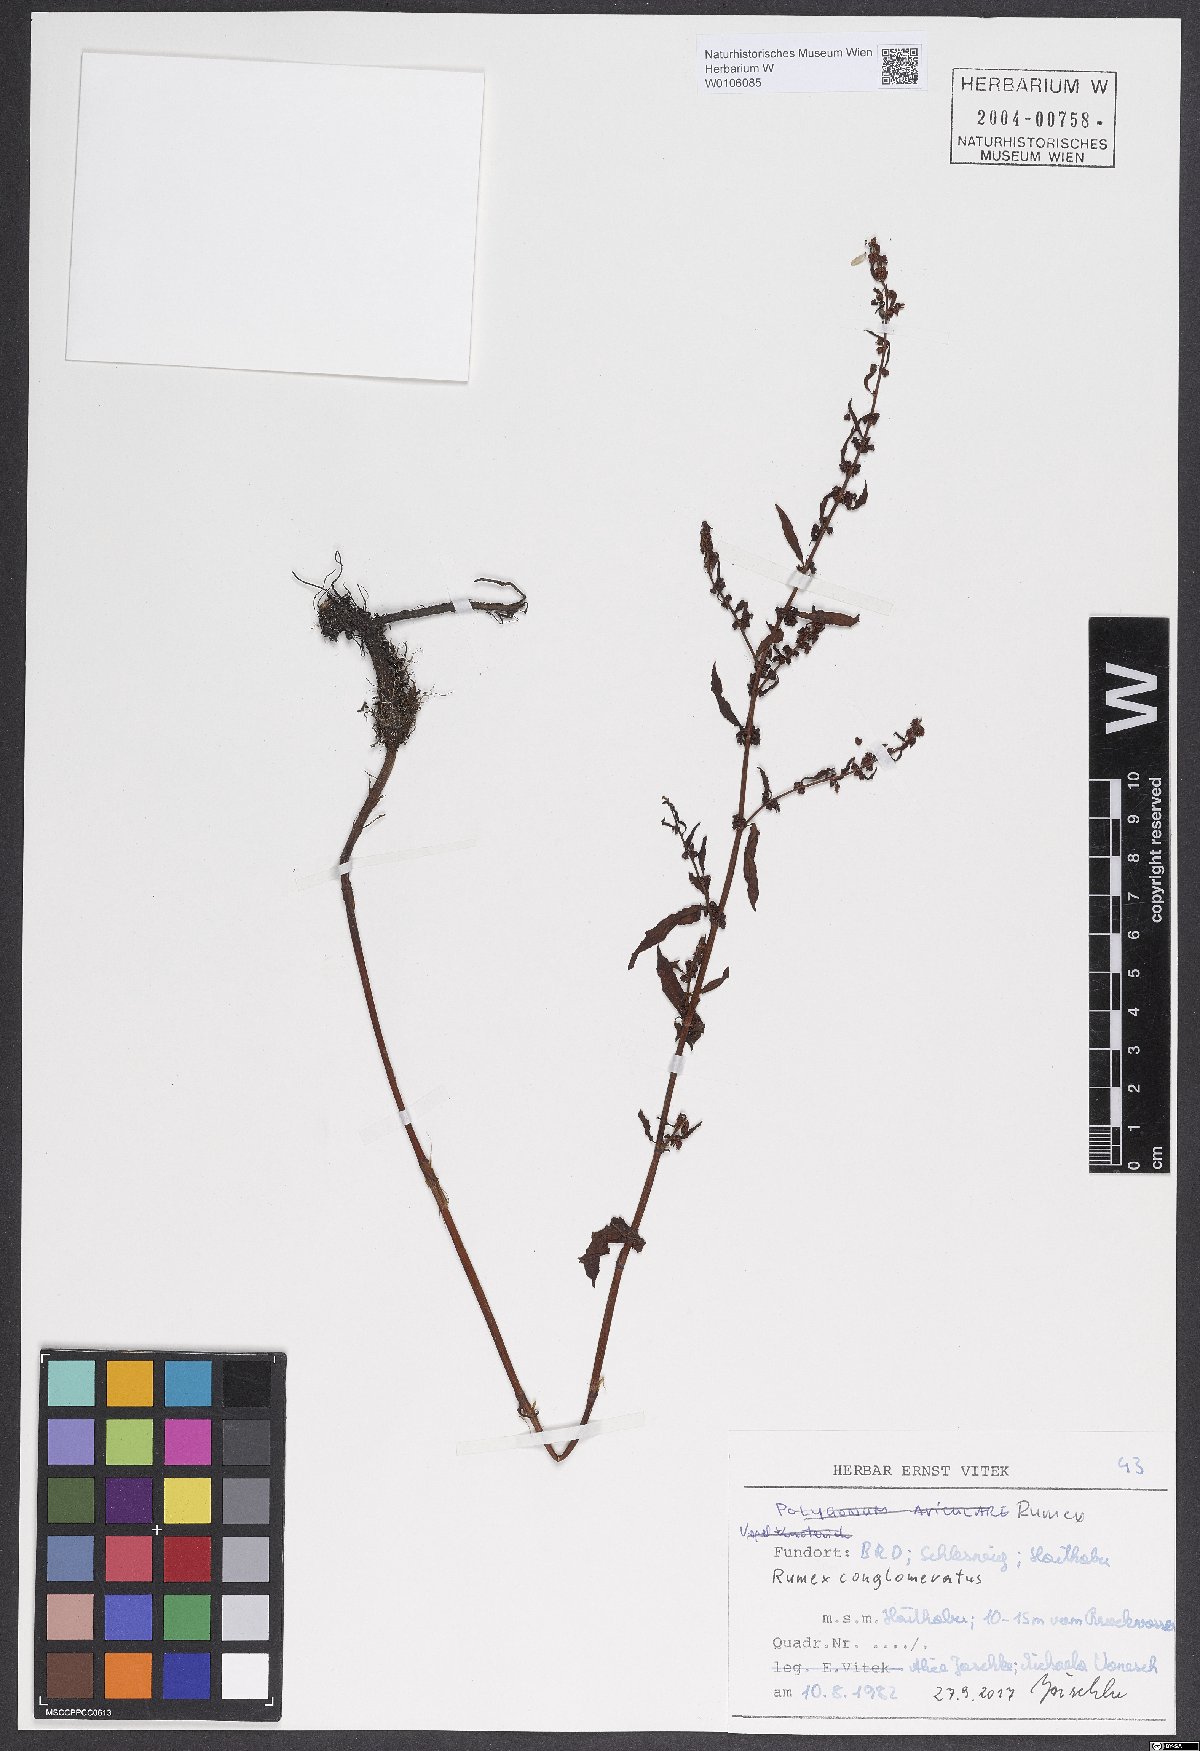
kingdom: Plantae
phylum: Tracheophyta
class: Magnoliopsida
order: Caryophyllales
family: Polygonaceae
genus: Rumex
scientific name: Rumex conglomeratus
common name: Clustered dock
